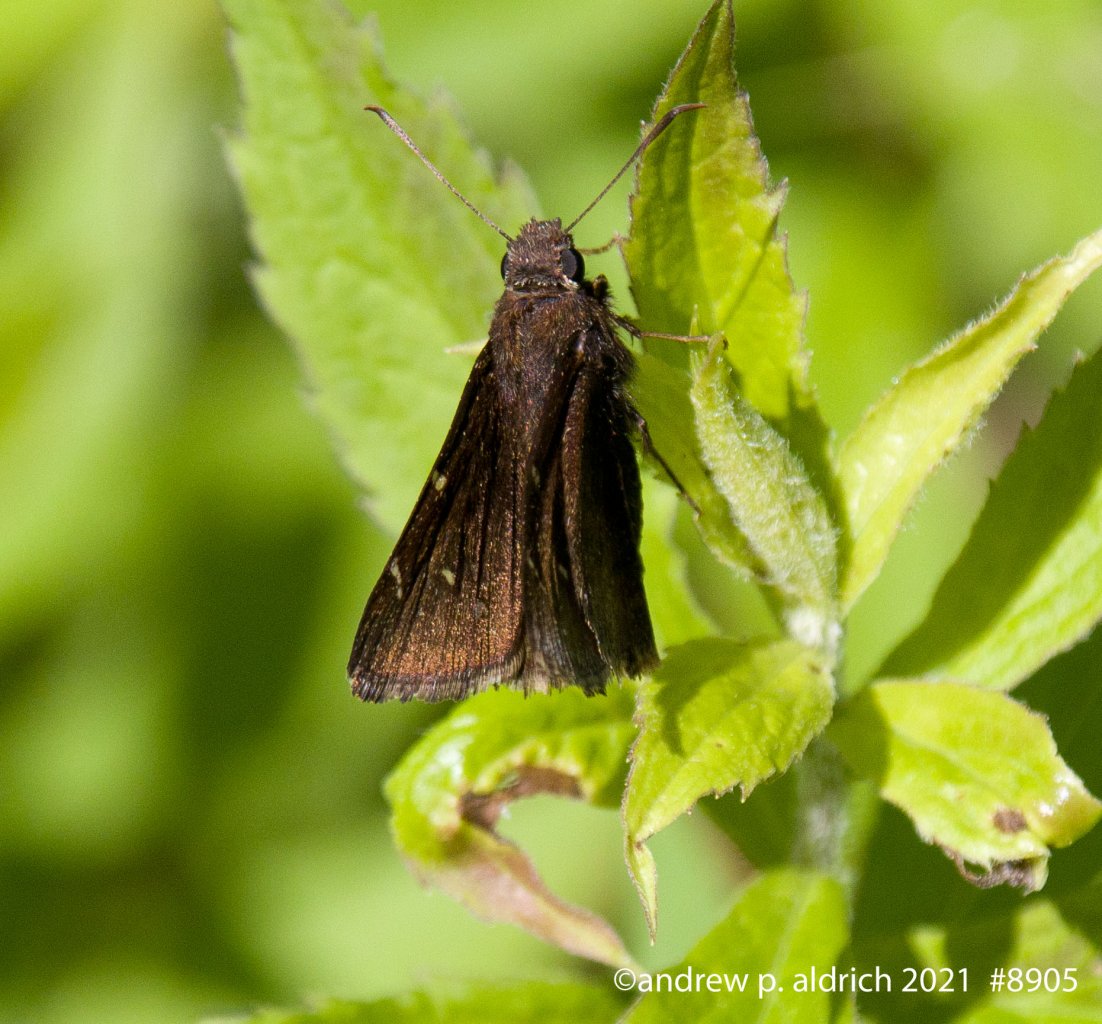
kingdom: Animalia
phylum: Arthropoda
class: Insecta
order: Lepidoptera
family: Hesperiidae
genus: Autochton
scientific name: Autochton
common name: Northern Cloudywing
